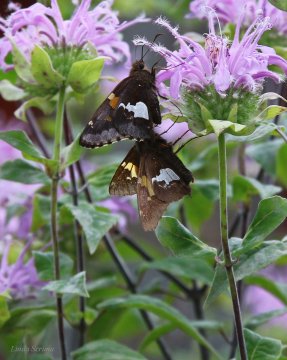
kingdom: Animalia
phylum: Arthropoda
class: Insecta
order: Lepidoptera
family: Hesperiidae
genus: Epargyreus
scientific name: Epargyreus clarus
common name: Silver-spotted Skipper
